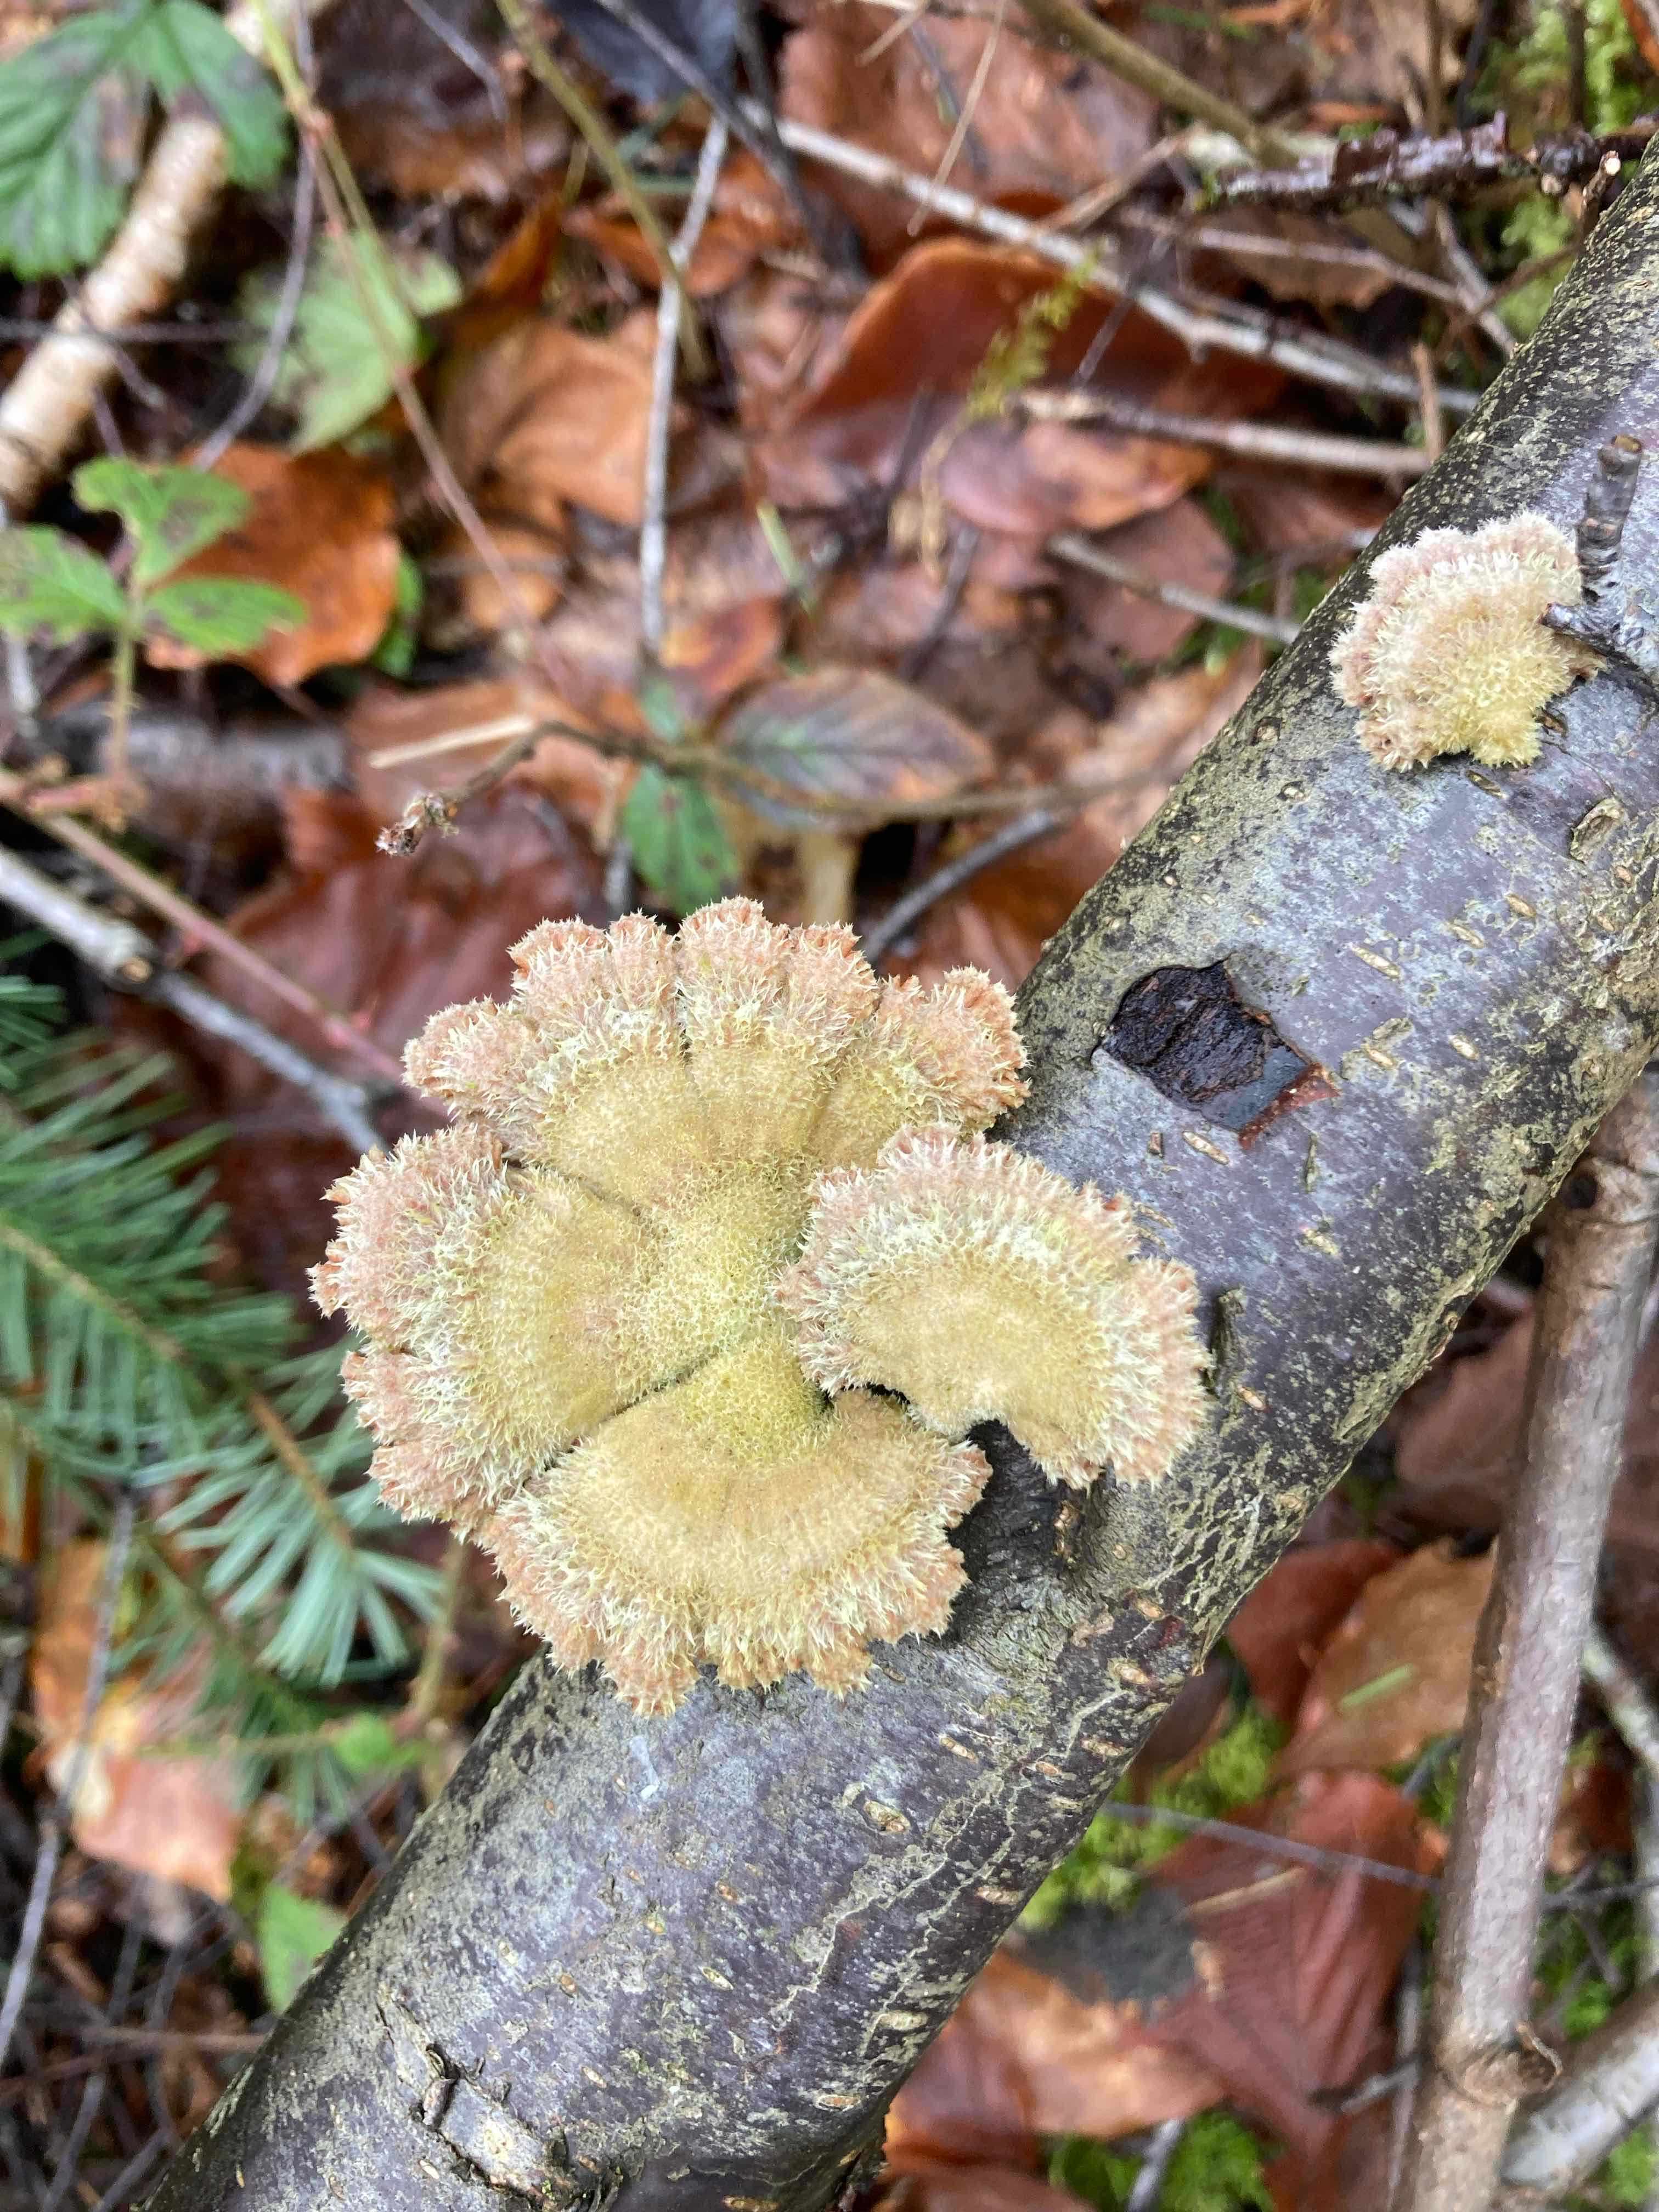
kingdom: Fungi
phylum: Basidiomycota
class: Agaricomycetes
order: Agaricales
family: Schizophyllaceae
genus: Schizophyllum
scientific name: Schizophyllum commune
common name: kløvblad
